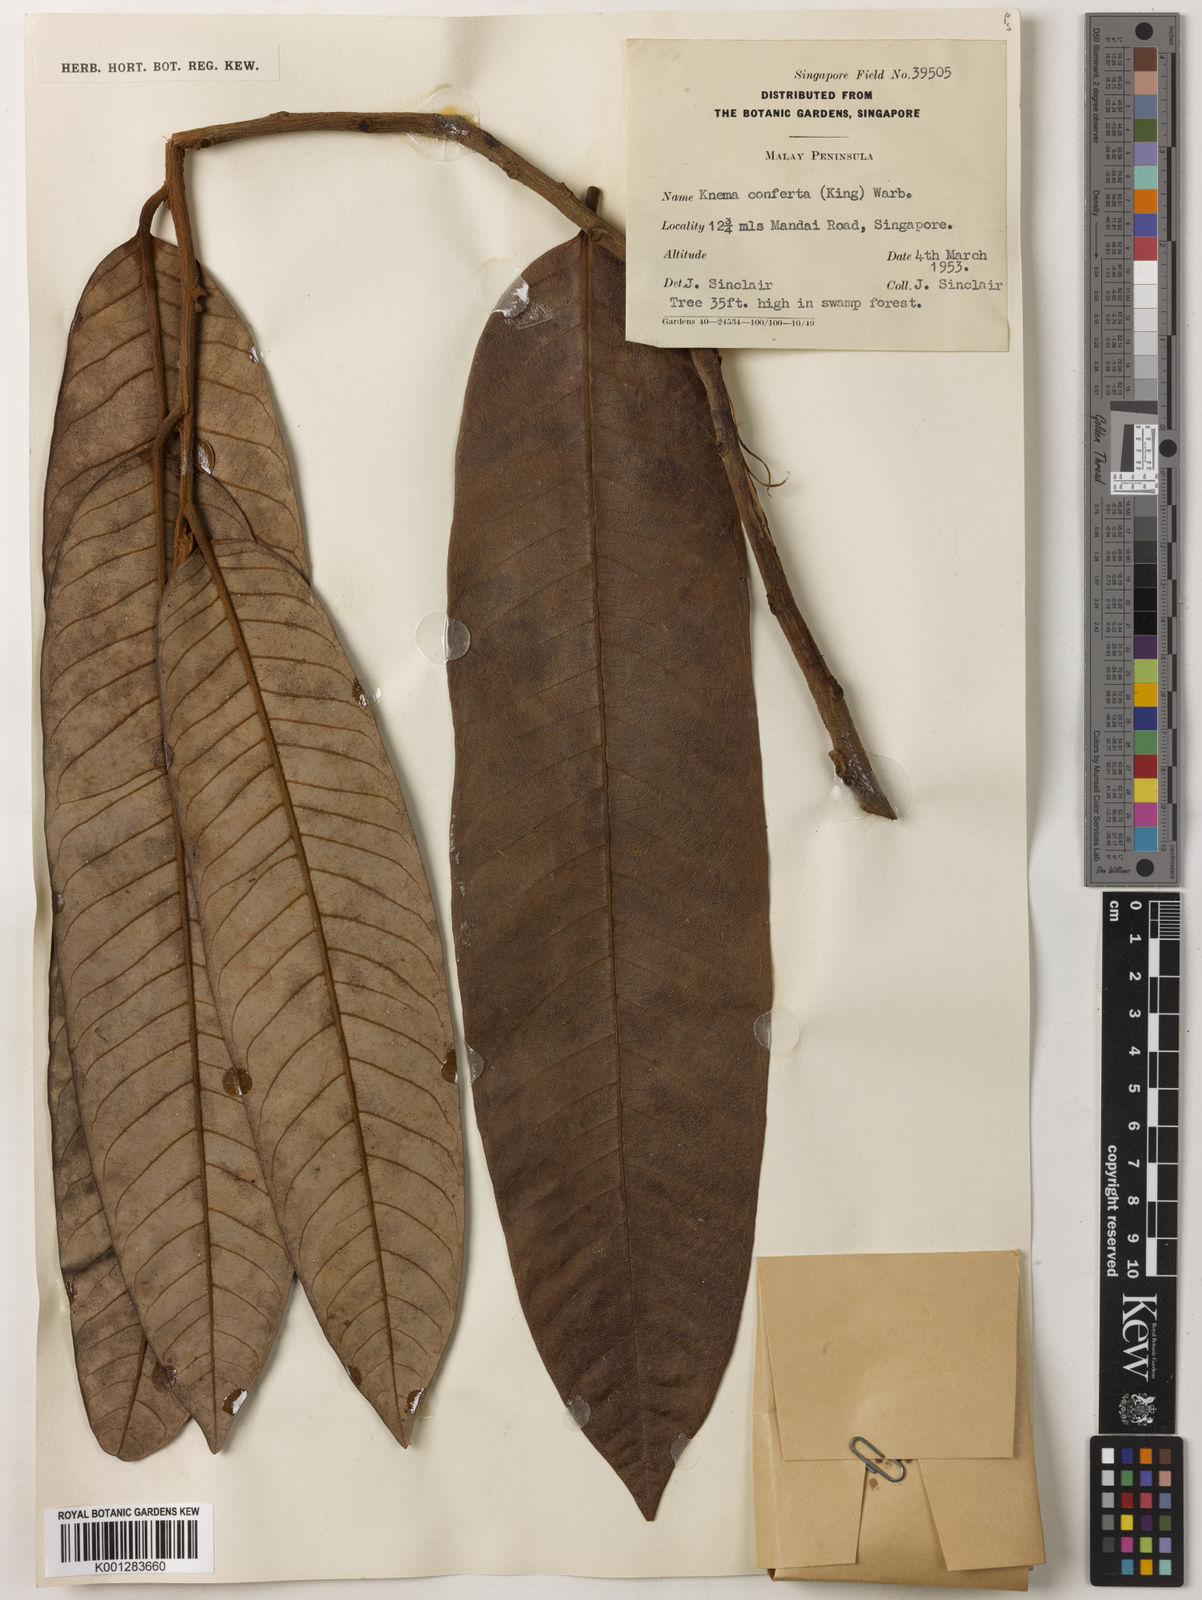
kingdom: Plantae
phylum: Tracheophyta
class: Magnoliopsida
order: Magnoliales
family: Myristicaceae
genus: Knema
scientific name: Knema conferta
